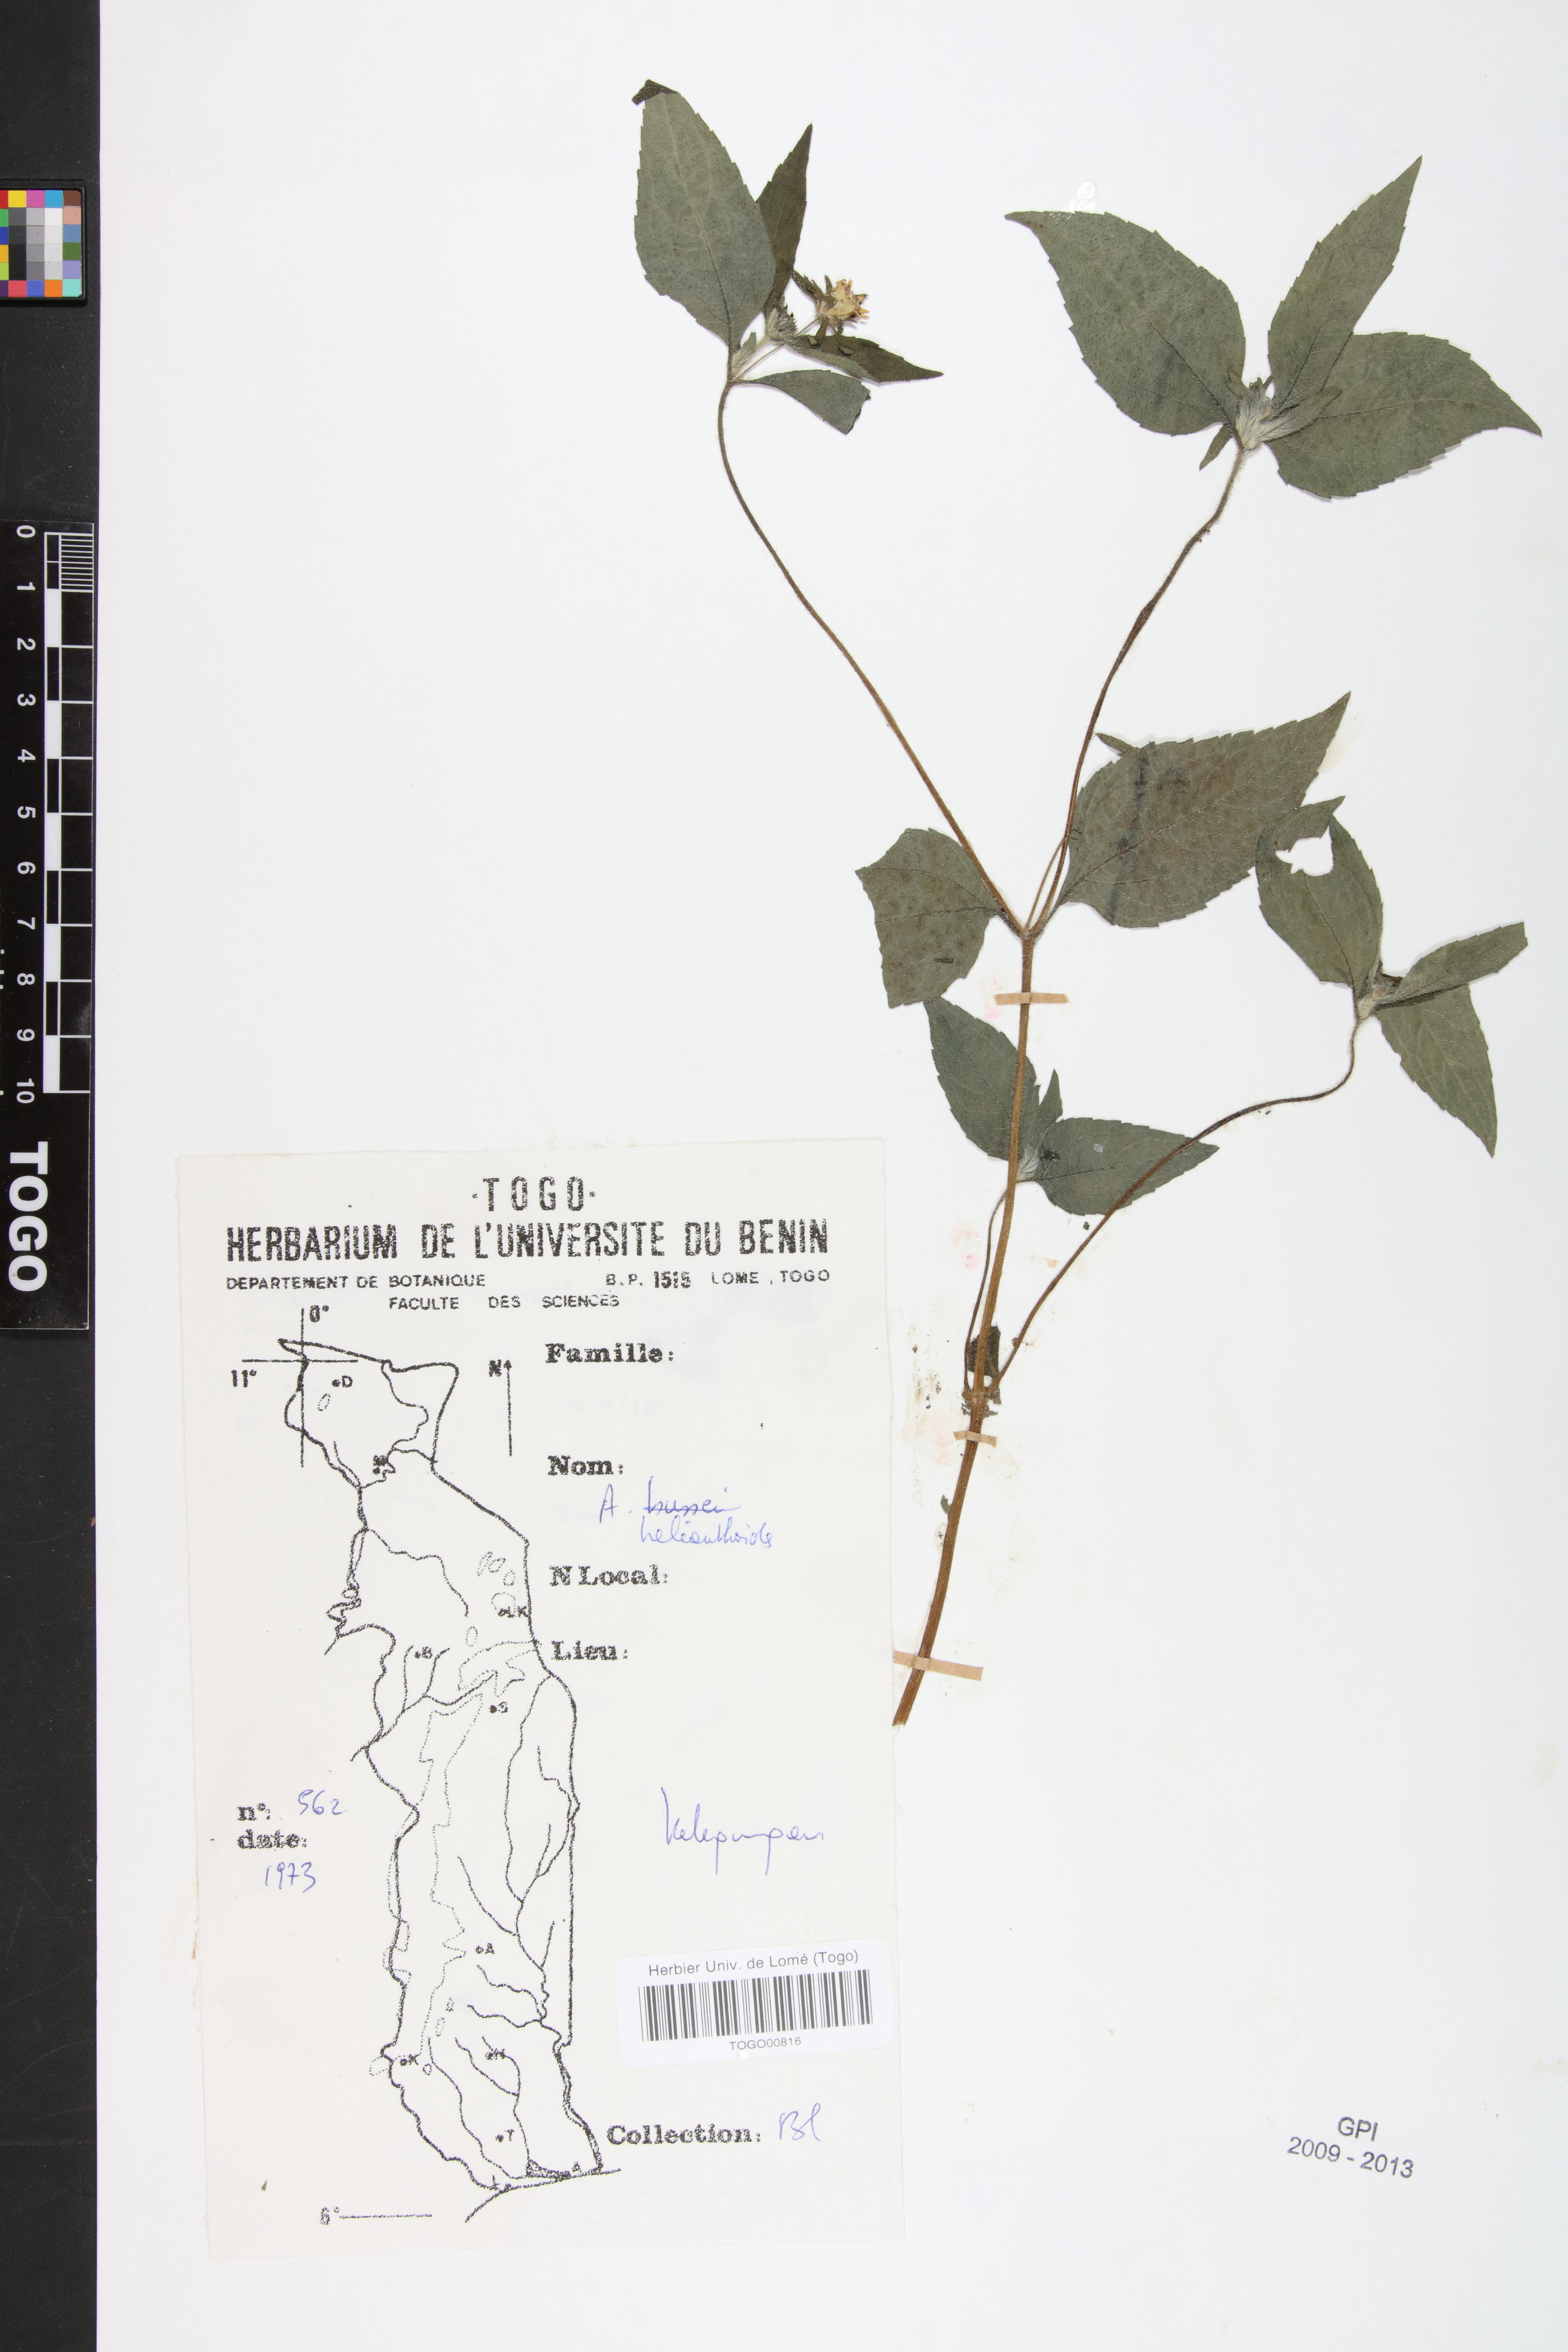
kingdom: Plantae
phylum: Tracheophyta
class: Magnoliopsida
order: Asterales
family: Asteraceae
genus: Aspilia
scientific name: Aspilia helianthoides
